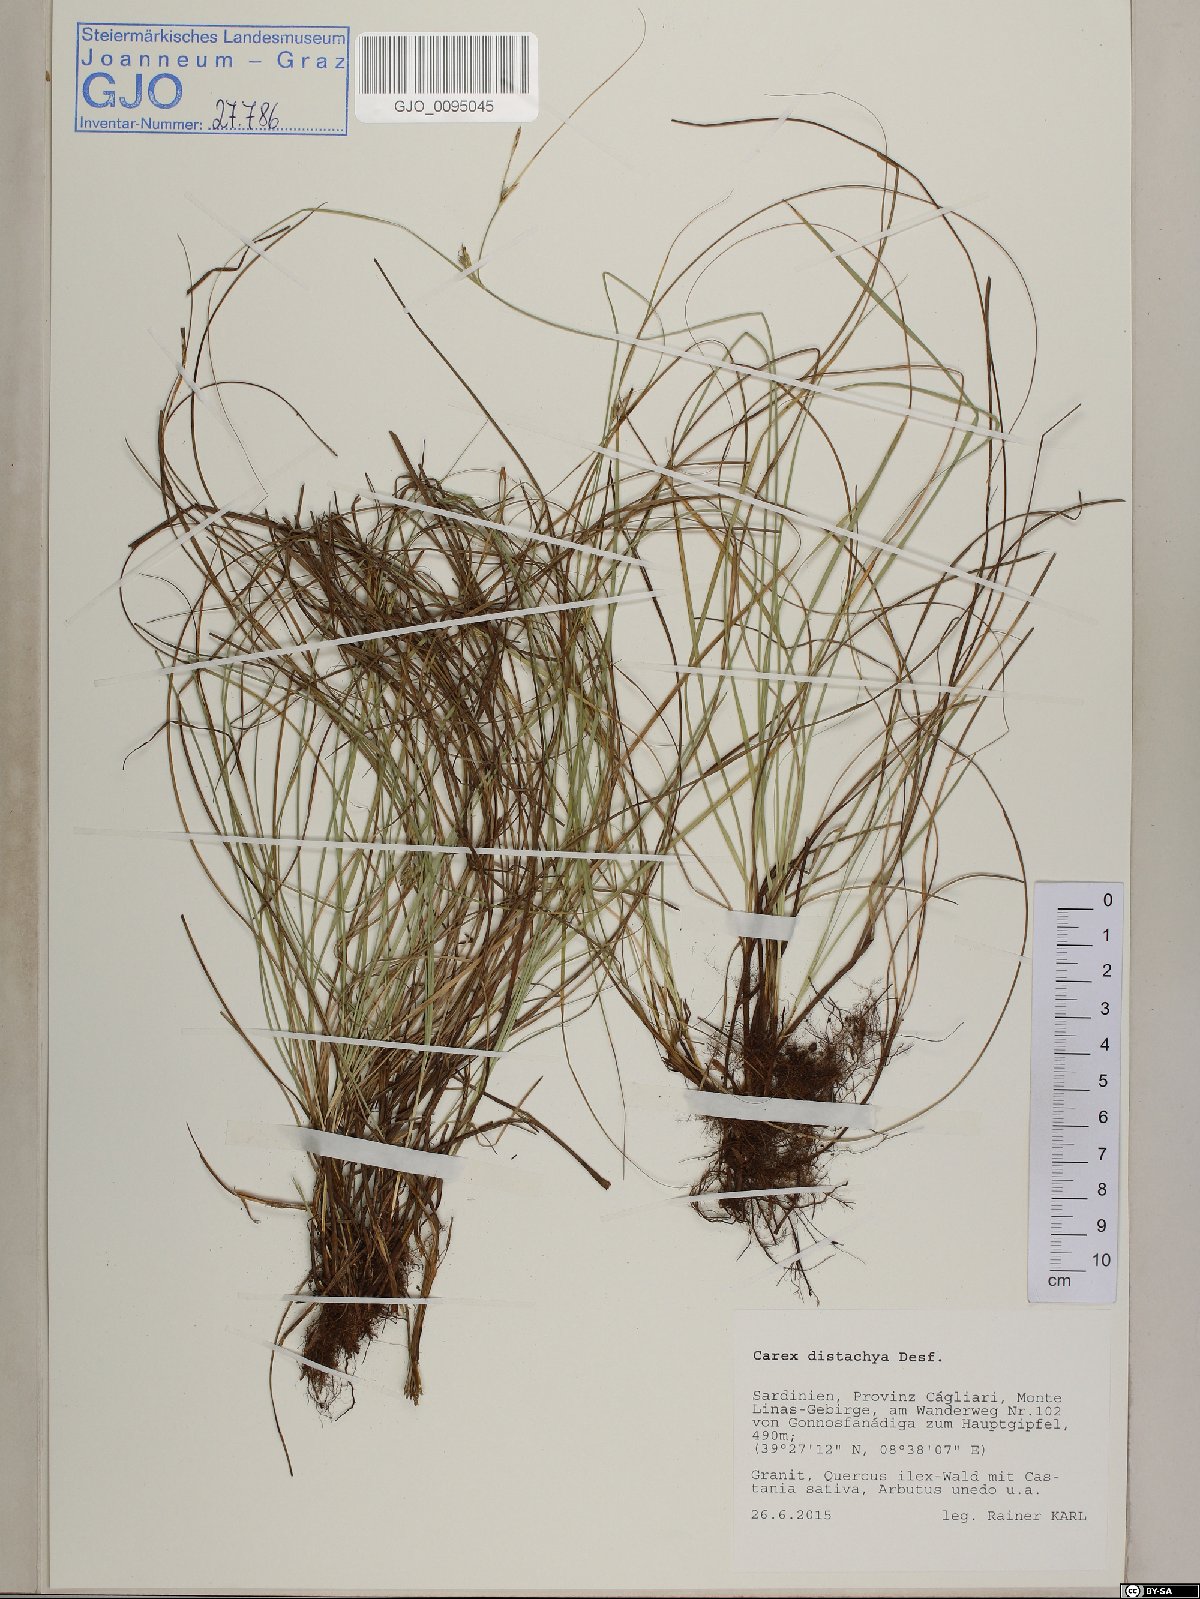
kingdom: Plantae
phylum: Tracheophyta
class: Liliopsida
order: Poales
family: Cyperaceae
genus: Carex
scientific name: Carex distachya
